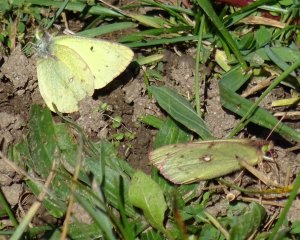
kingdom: Animalia
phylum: Arthropoda
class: Insecta
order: Lepidoptera
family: Pieridae
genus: Colias
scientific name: Colias philodice
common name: Clouded Sulphur
